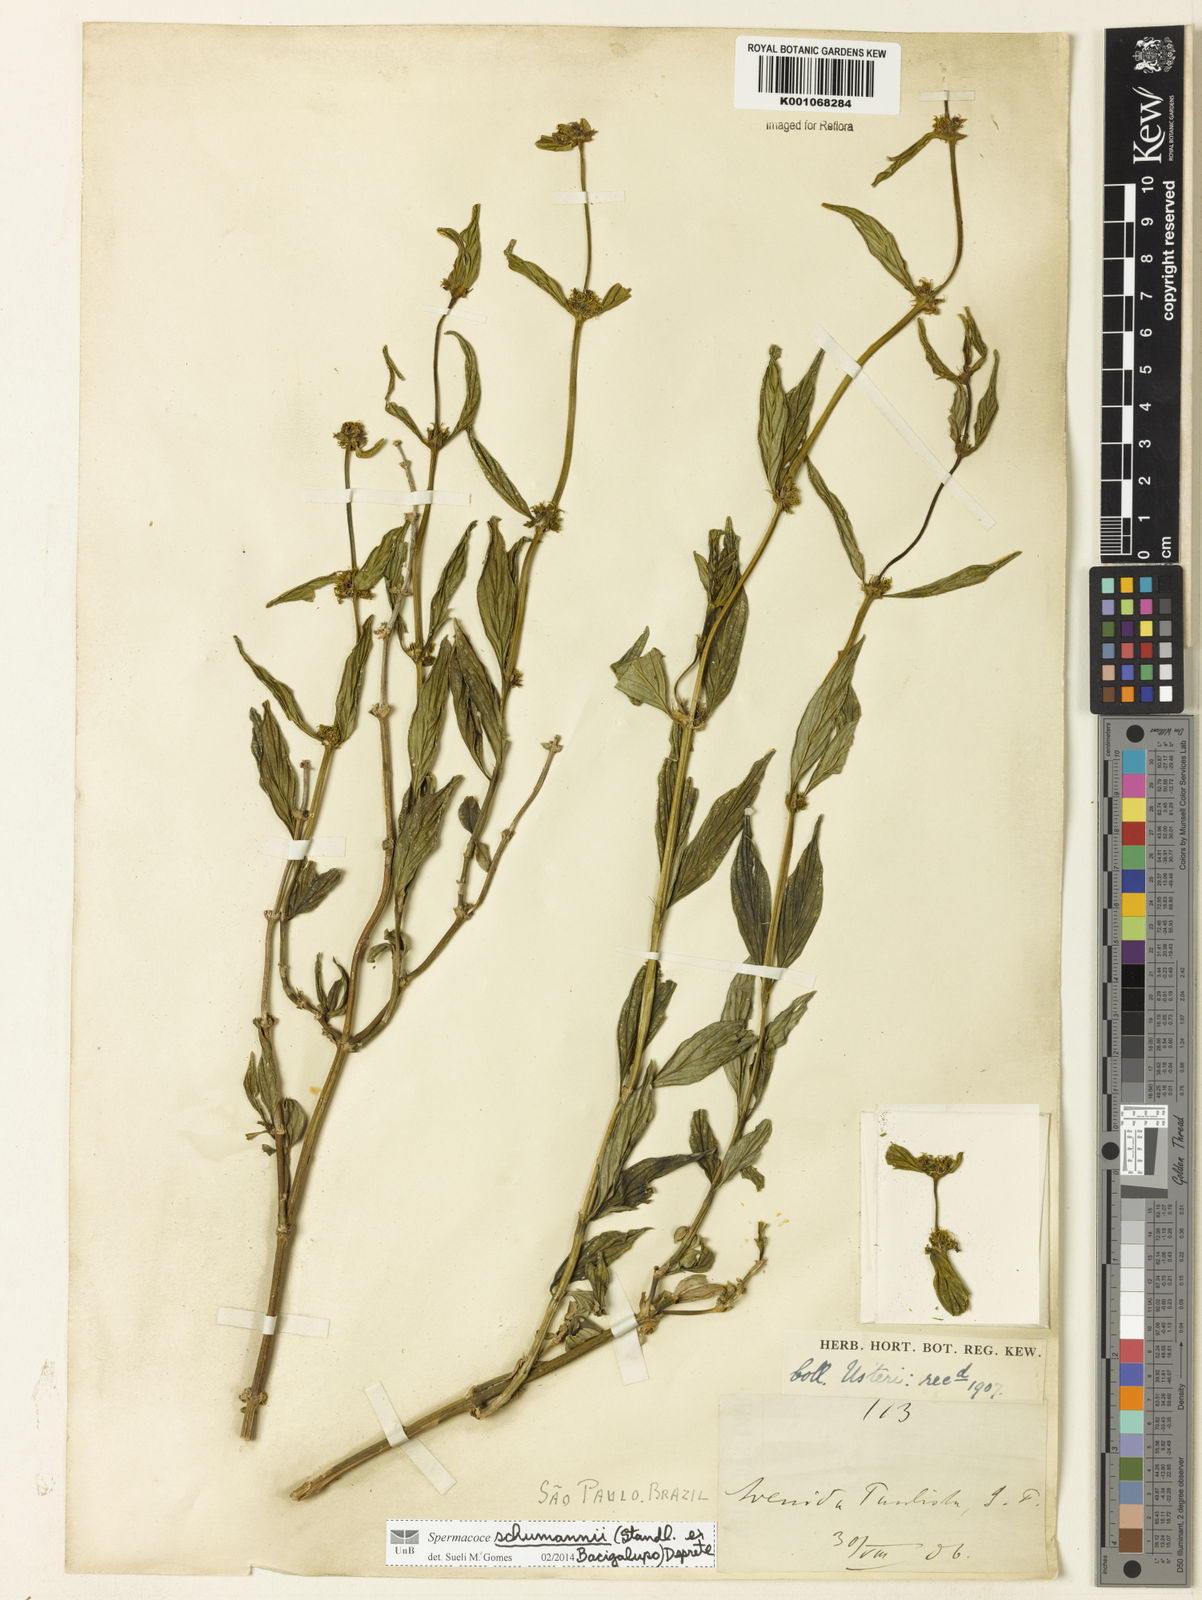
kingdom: Plantae
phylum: Tracheophyta
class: Magnoliopsida
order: Gentianales
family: Rubiaceae
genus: Spermacoce
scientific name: Spermacoce schumannii
